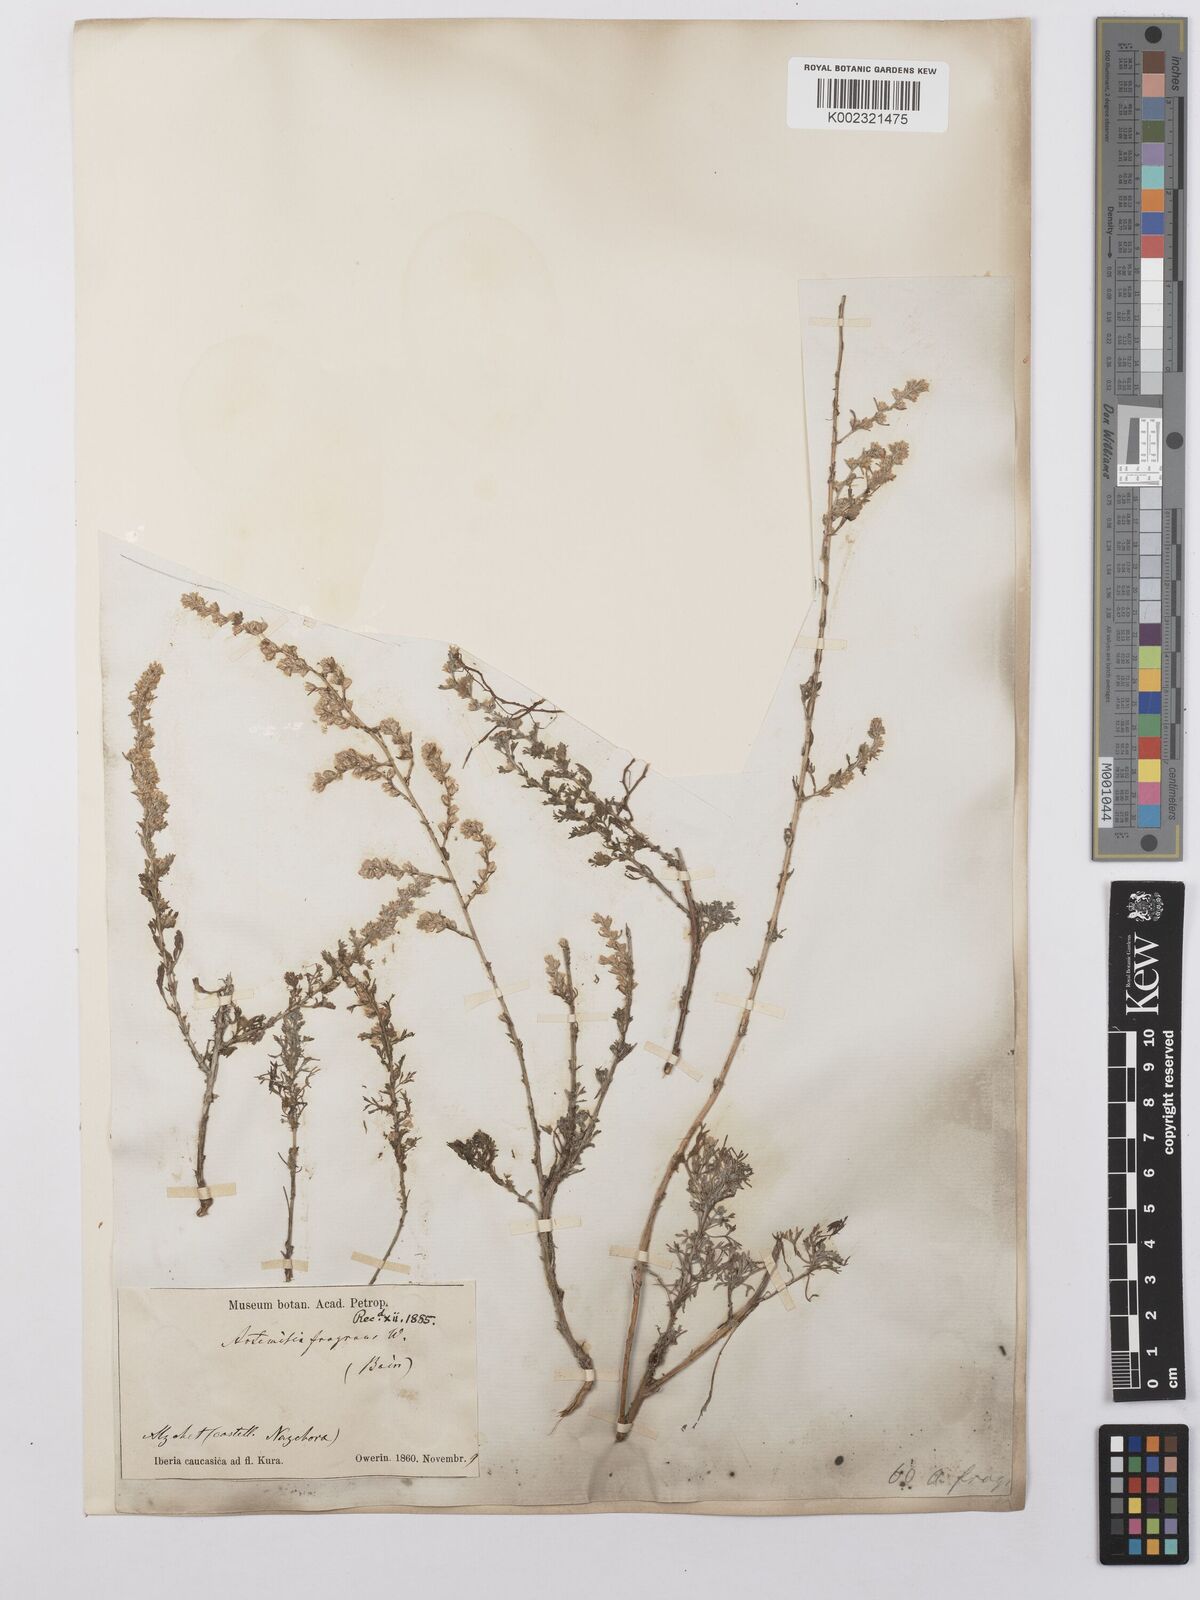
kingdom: Plantae
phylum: Tracheophyta
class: Magnoliopsida
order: Asterales
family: Asteraceae
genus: Artemisia
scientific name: Artemisia fragrans
